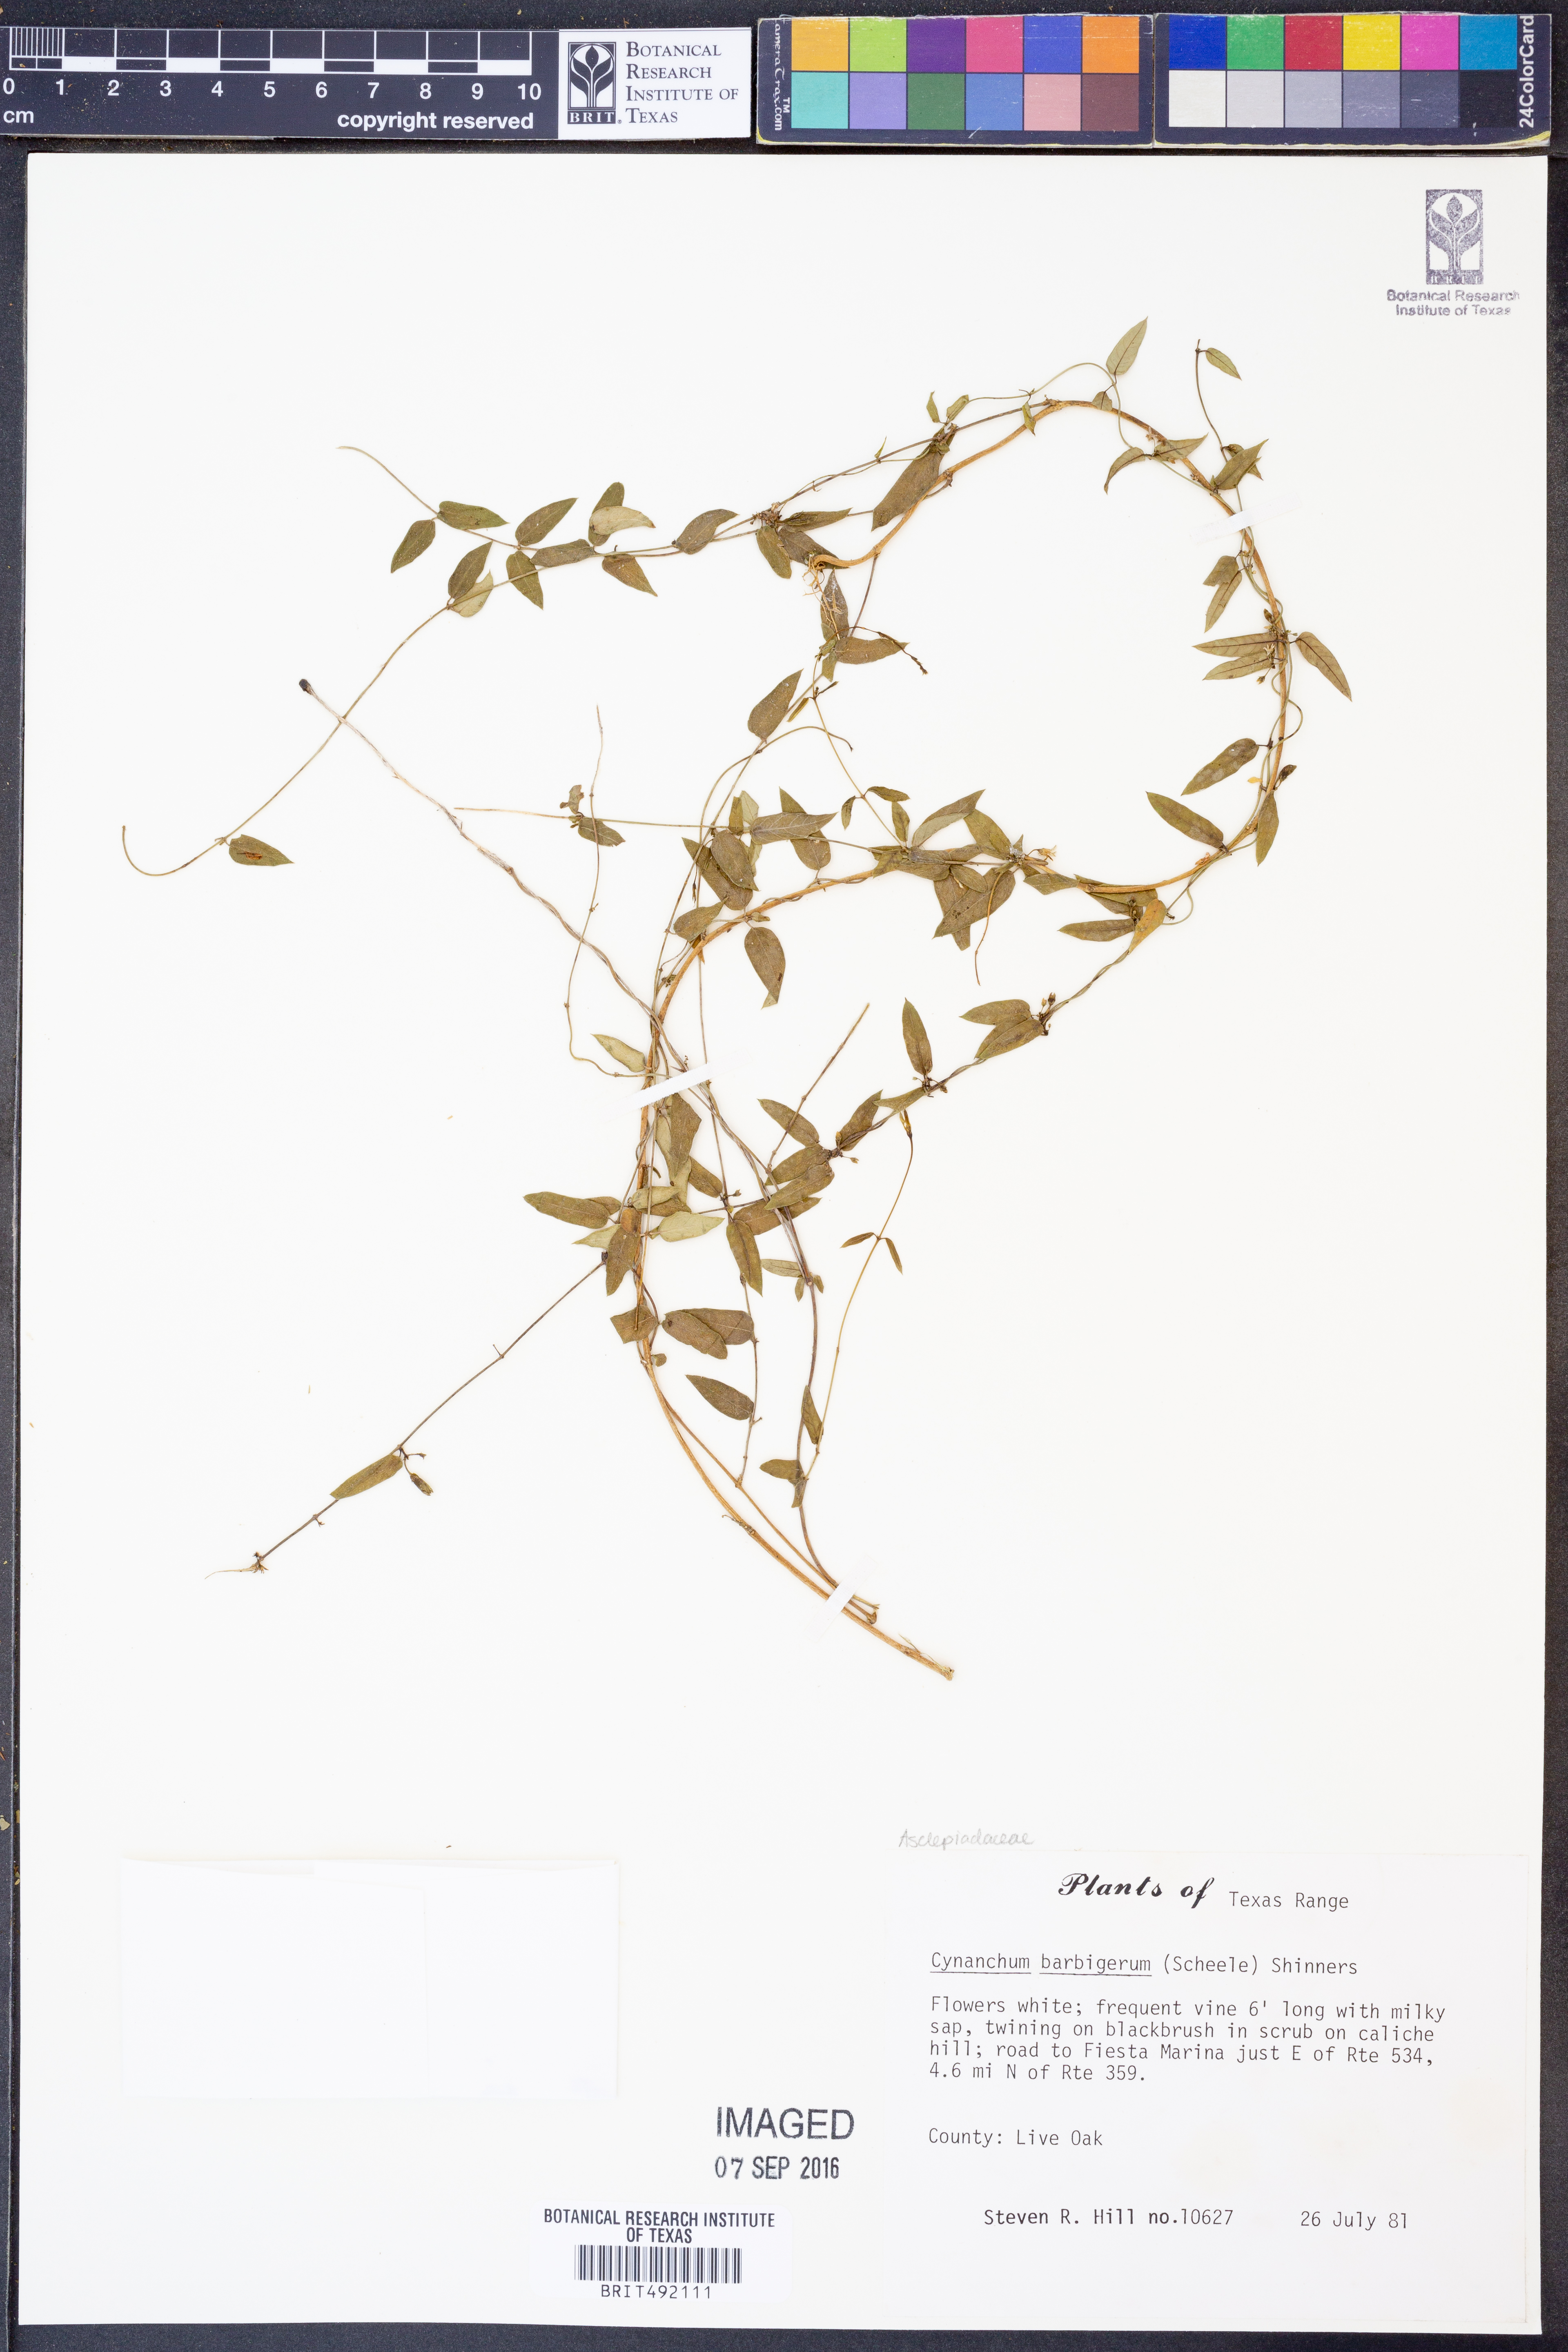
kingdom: Plantae
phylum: Tracheophyta
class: Magnoliopsida
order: Gentianales
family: Apocynaceae
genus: Metastelma
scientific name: Metastelma barbigerum
